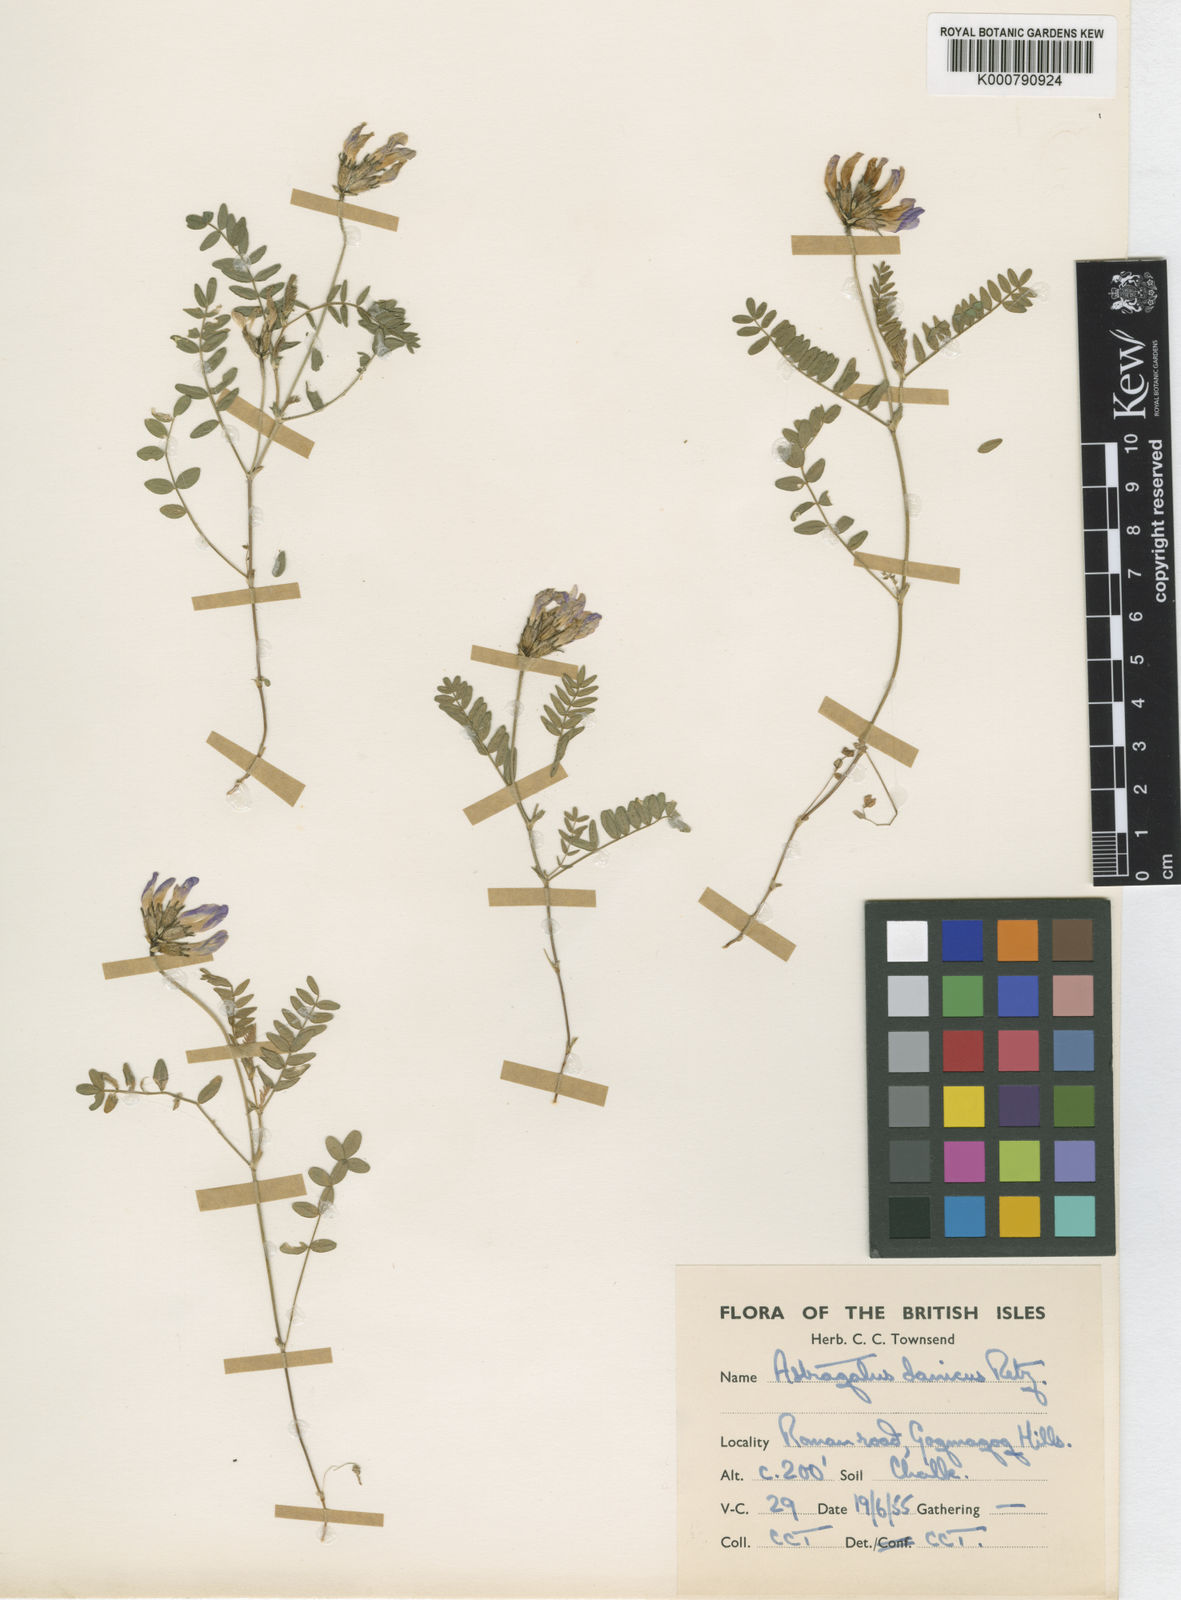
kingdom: Plantae
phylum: Tracheophyta
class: Magnoliopsida
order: Fabales
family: Fabaceae
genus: Astragalus
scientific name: Astragalus danicus
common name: Purple milk-vetch
